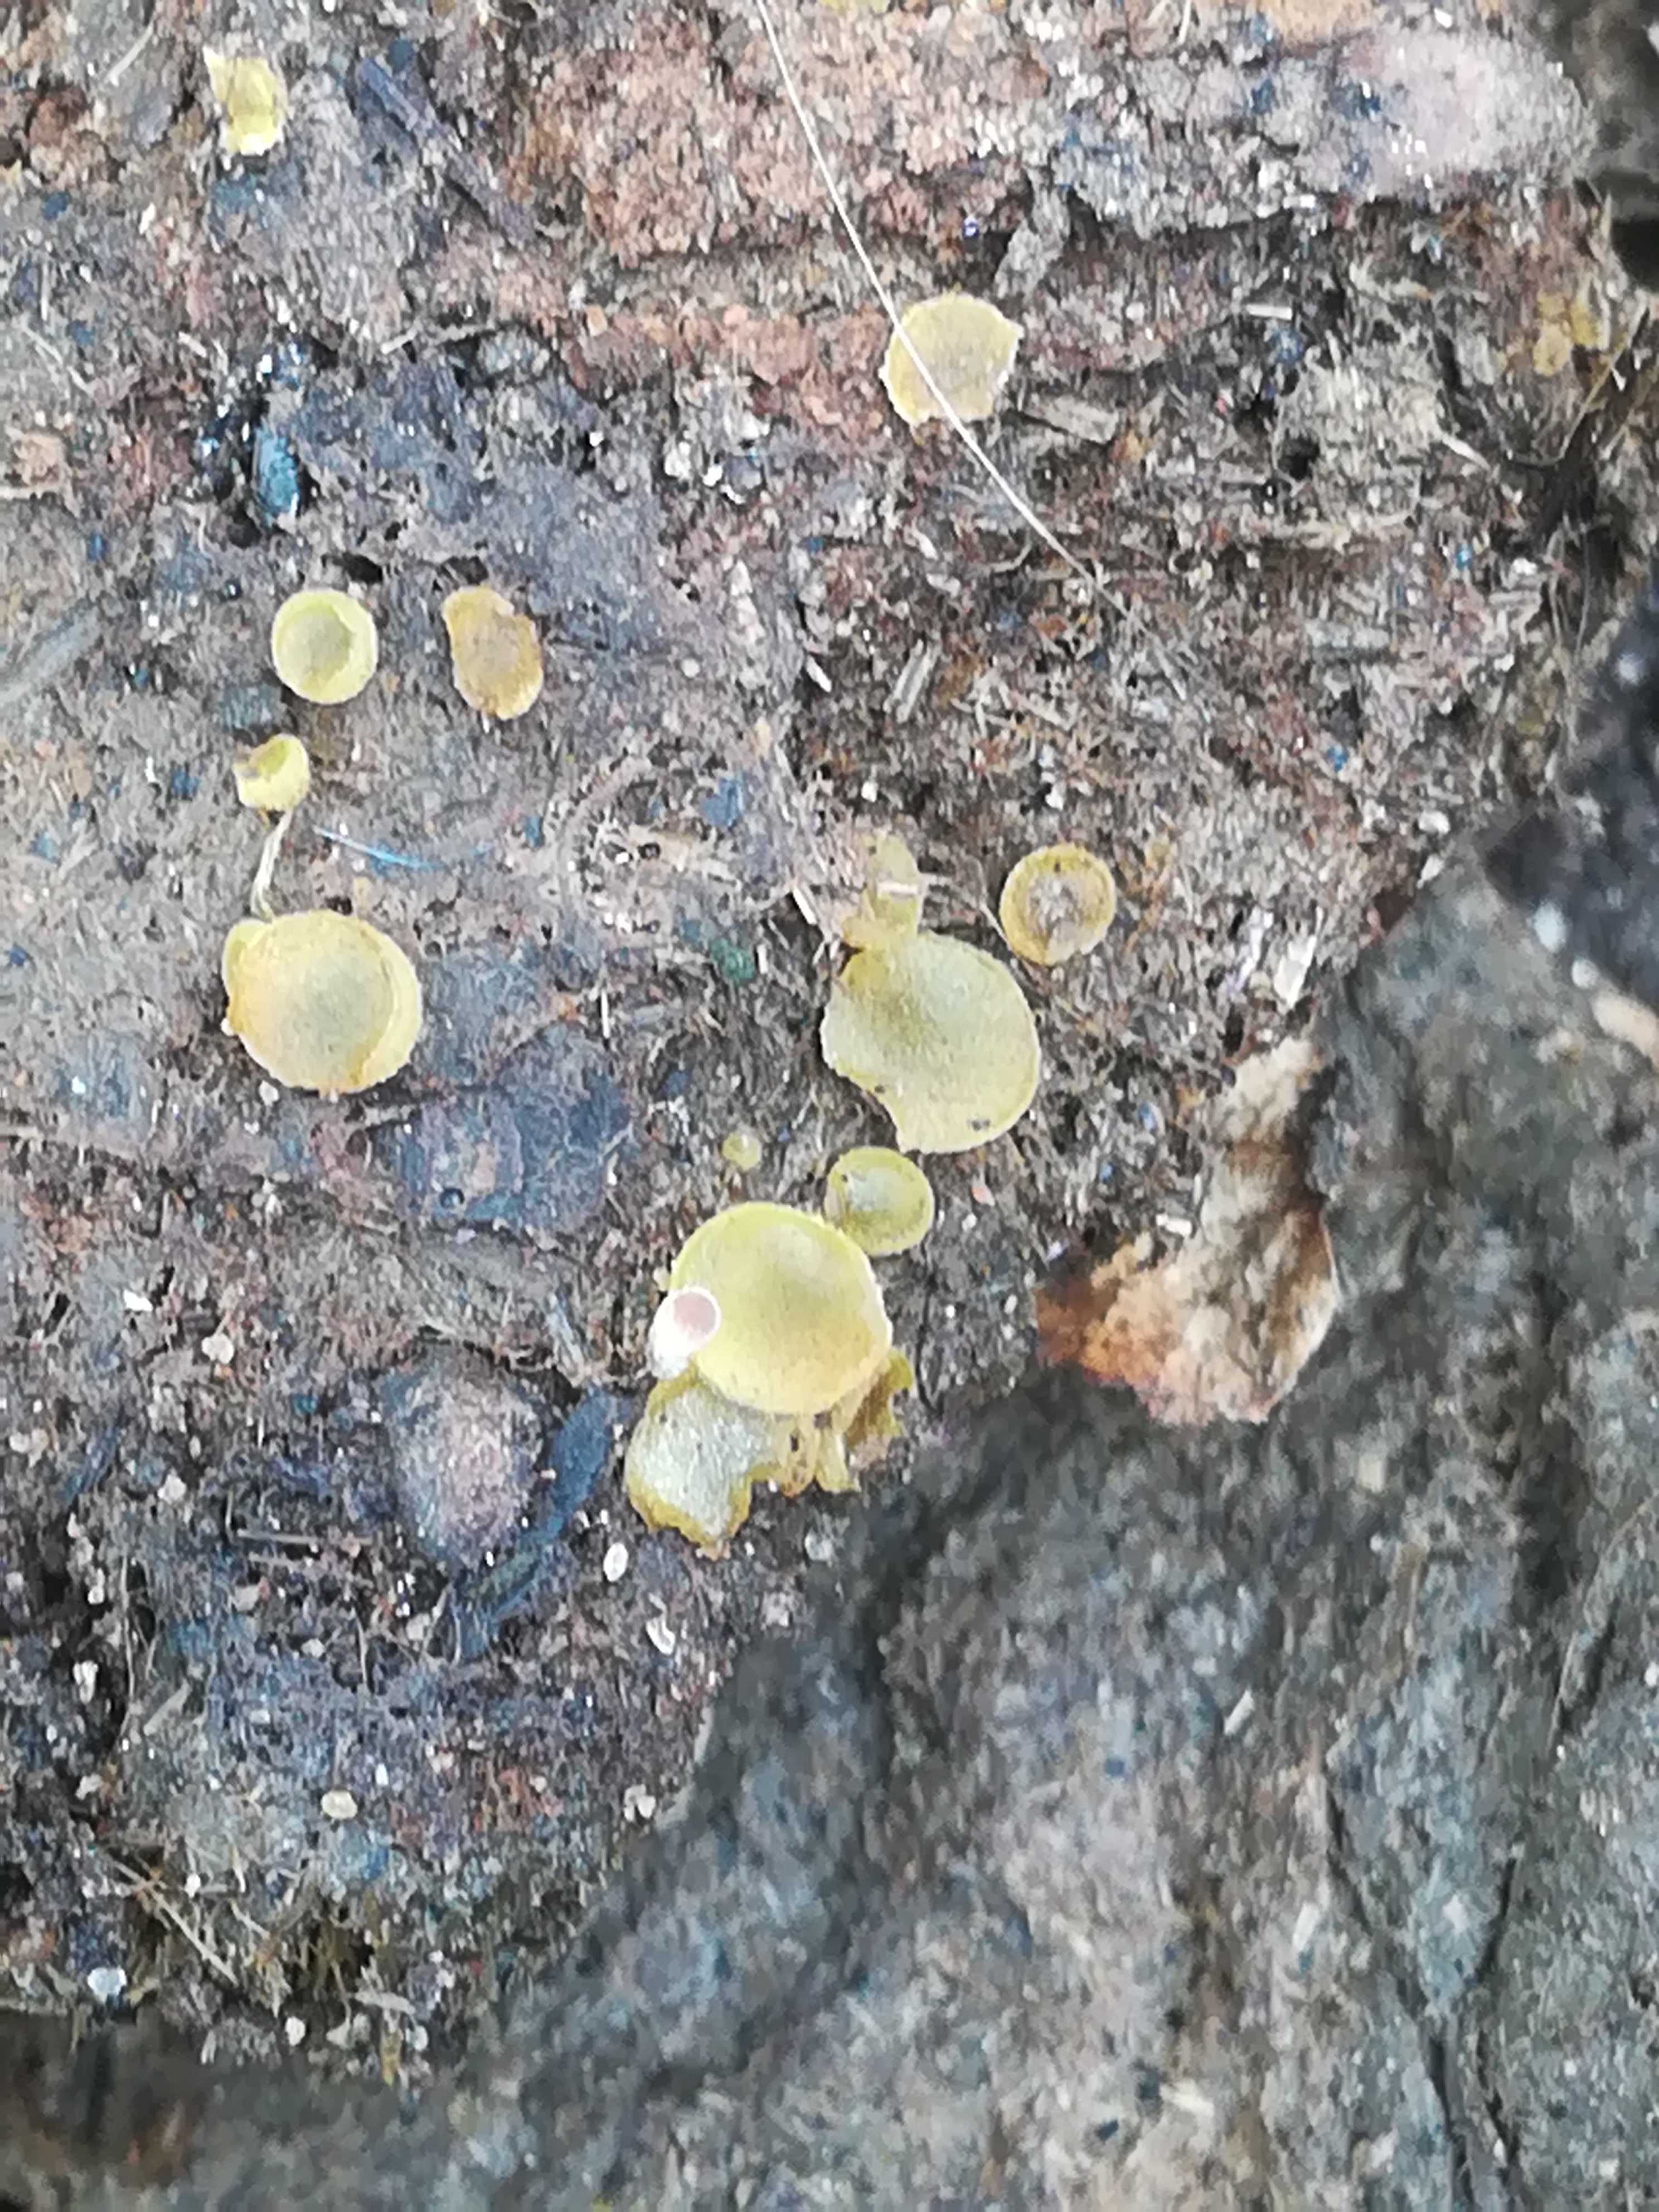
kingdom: Fungi
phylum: Ascomycota
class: Pezizomycetes
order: Pezizales
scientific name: Pezizales
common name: bægersvampordenen
